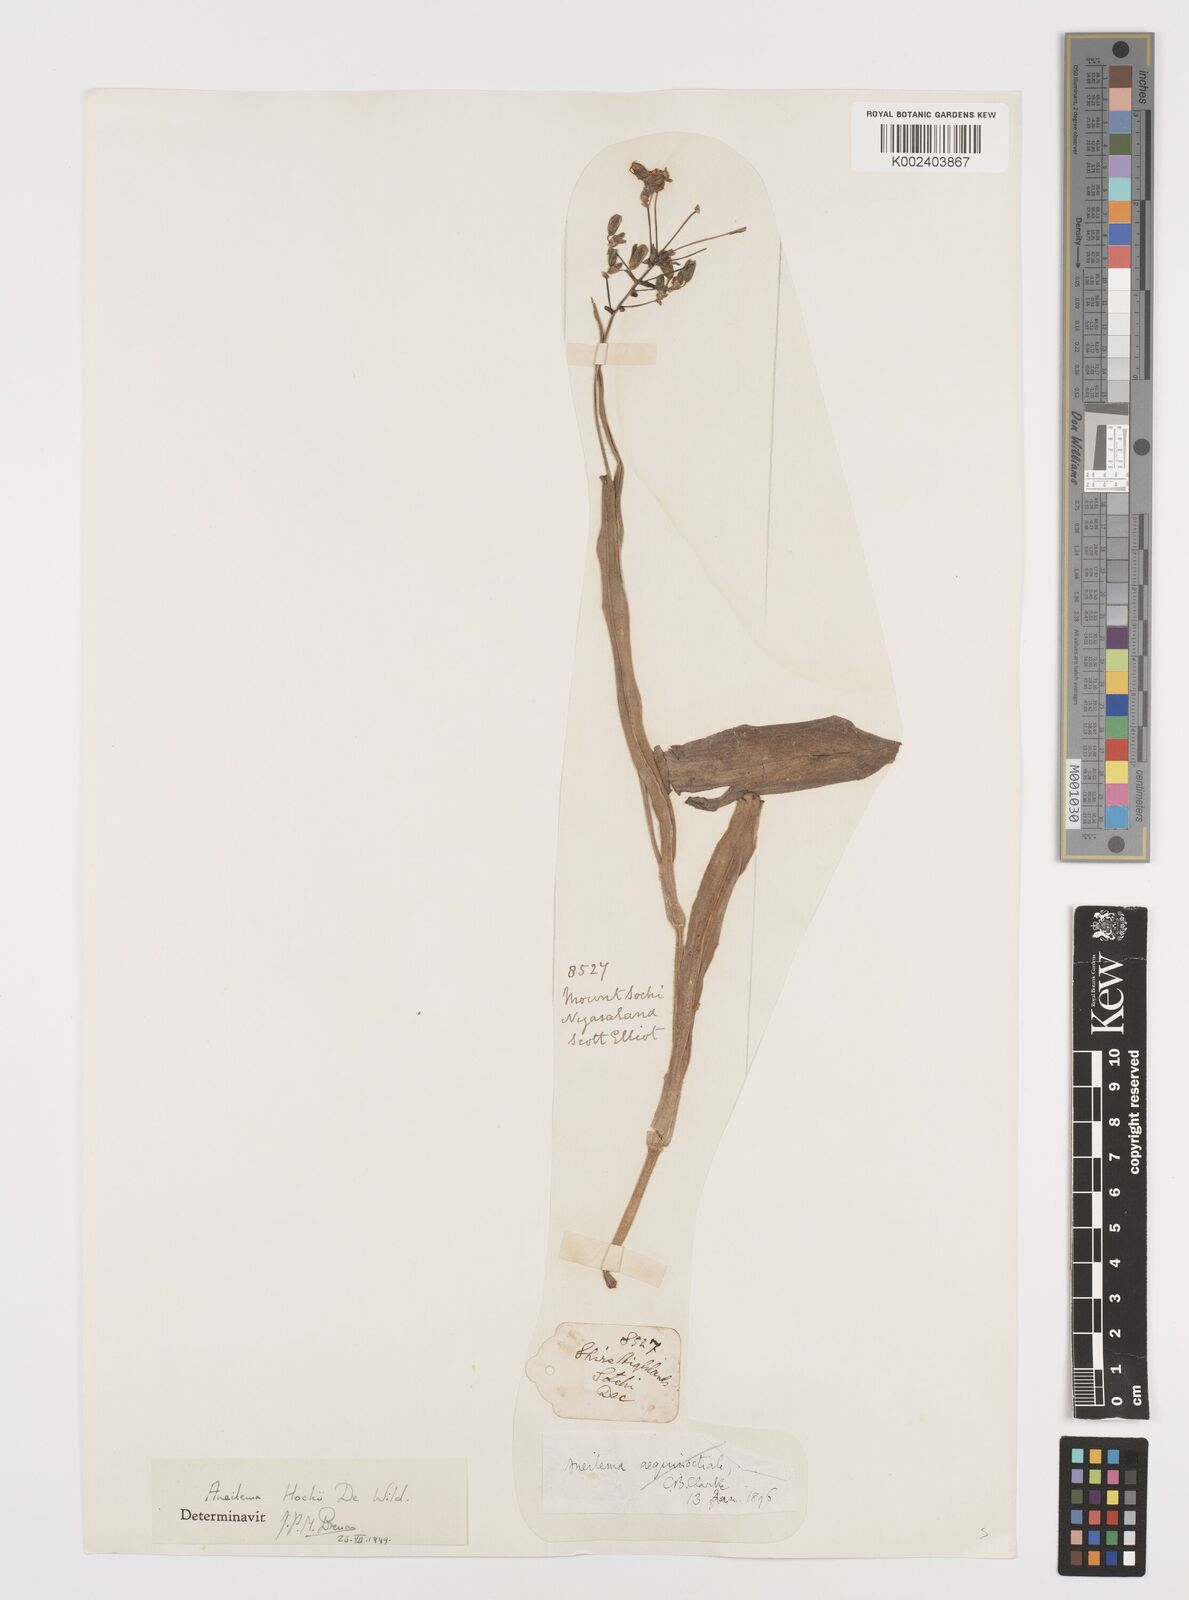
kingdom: Plantae
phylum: Tracheophyta
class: Liliopsida
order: Commelinales
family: Commelinaceae
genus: Aneilema
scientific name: Aneilema hockii
